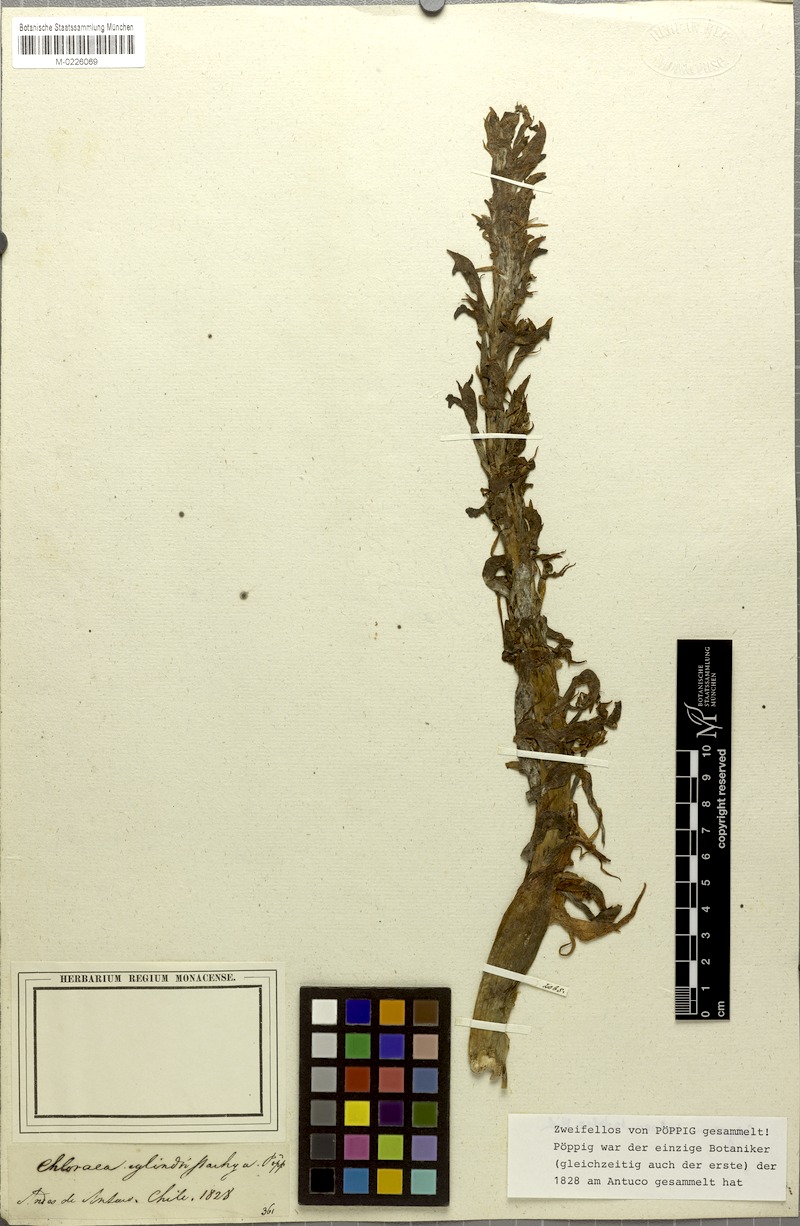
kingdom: Plantae
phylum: Tracheophyta
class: Liliopsida
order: Asparagales
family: Orchidaceae
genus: Chloraea
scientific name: Chloraea cylindrostachya
